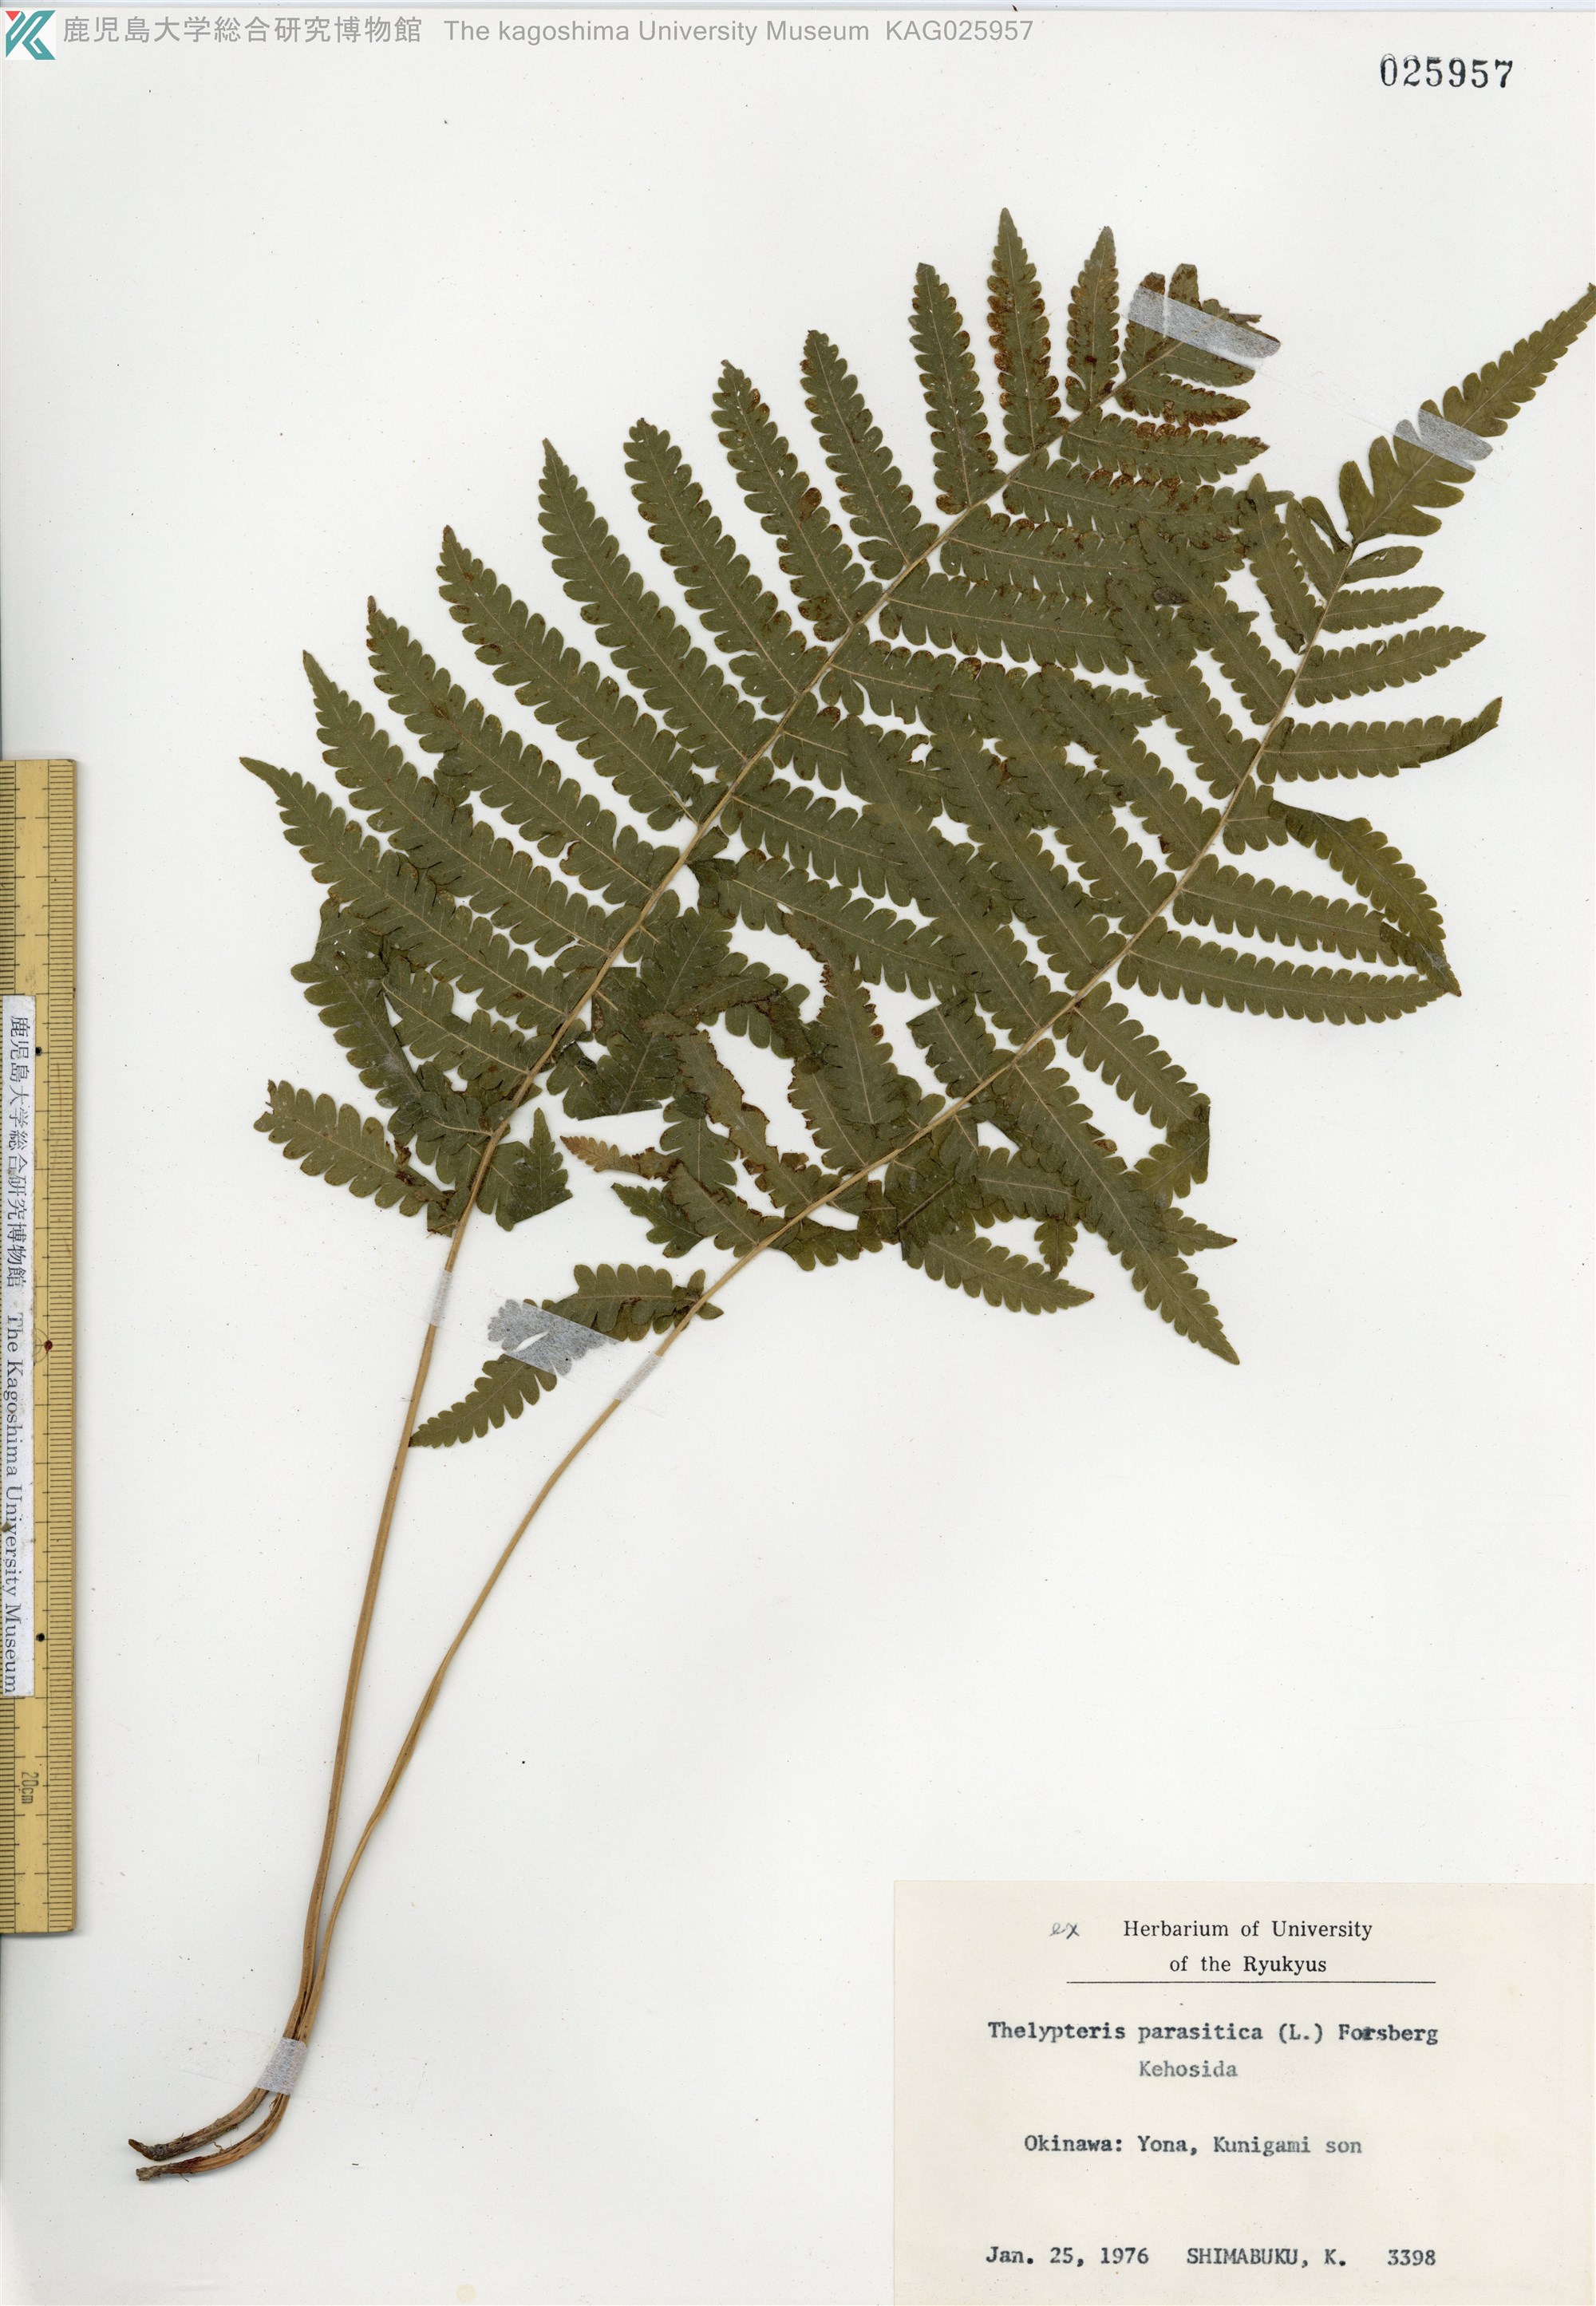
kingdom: Plantae
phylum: Tracheophyta
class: Polypodiopsida
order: Polypodiales
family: Thelypteridaceae
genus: Christella
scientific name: Christella parasitica
